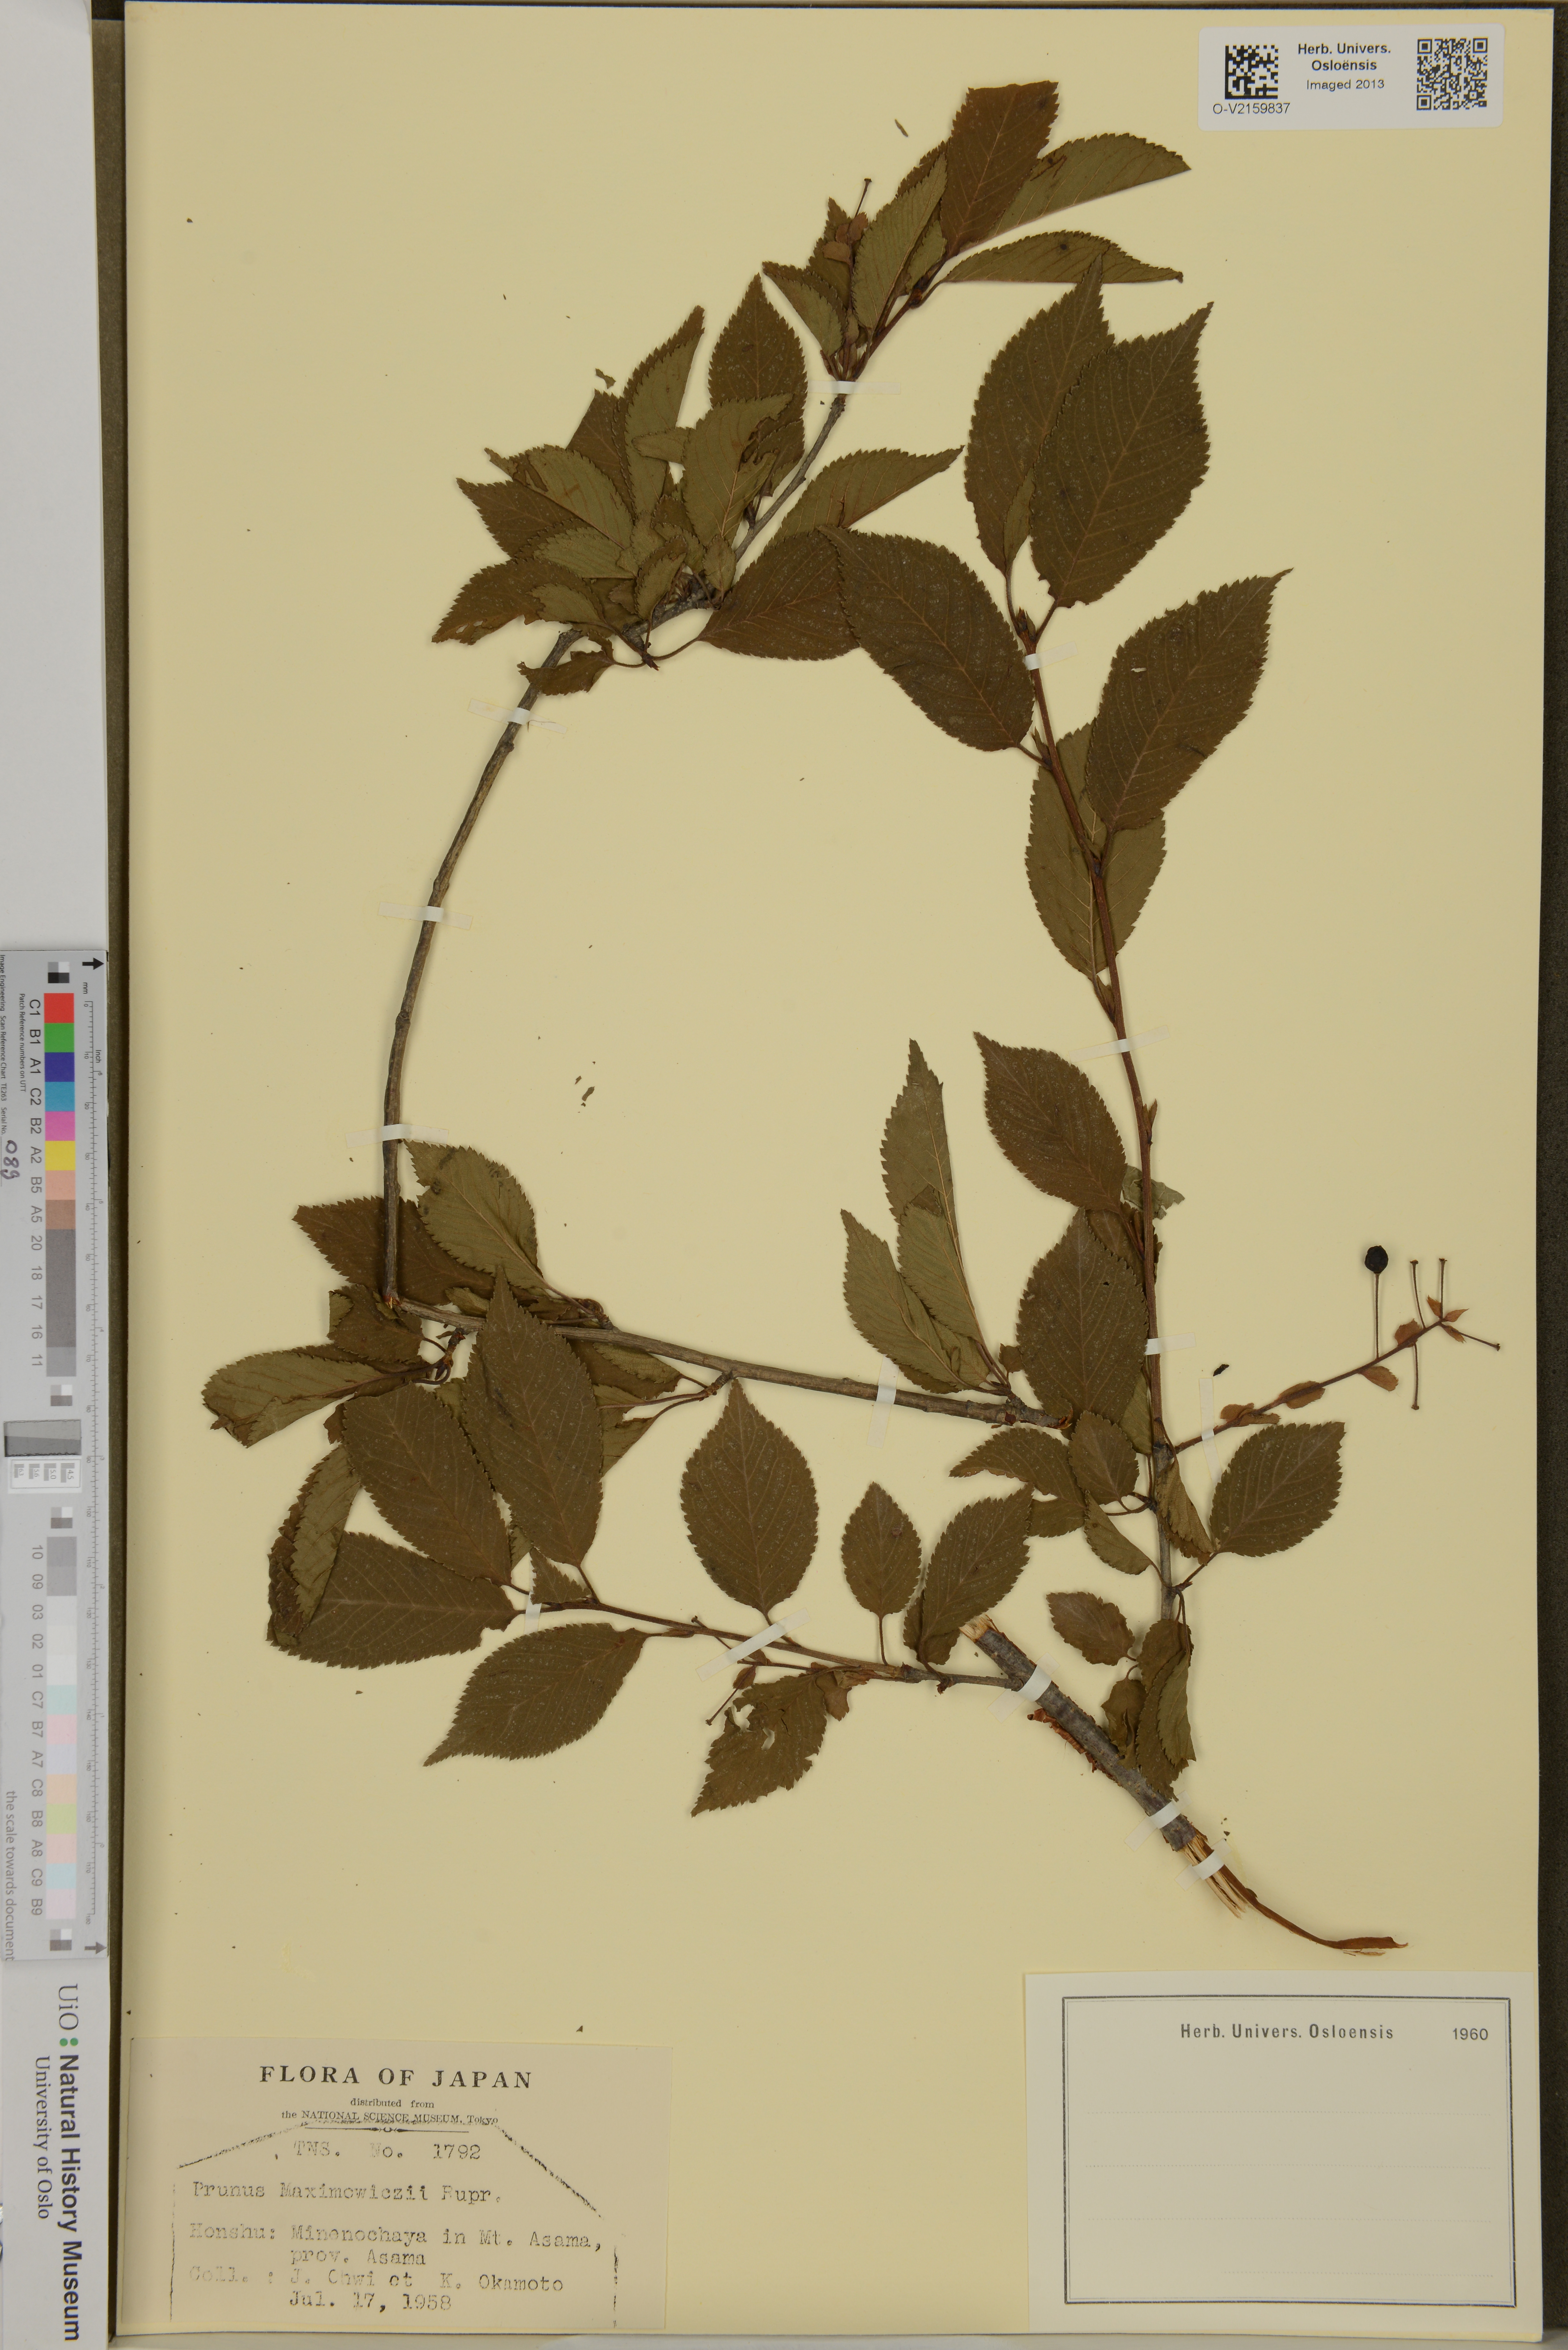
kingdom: Plantae
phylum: Tracheophyta
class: Magnoliopsida
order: Rosales
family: Rosaceae
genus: Prunus
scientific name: Prunus maximowiczii
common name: Korean cherry
